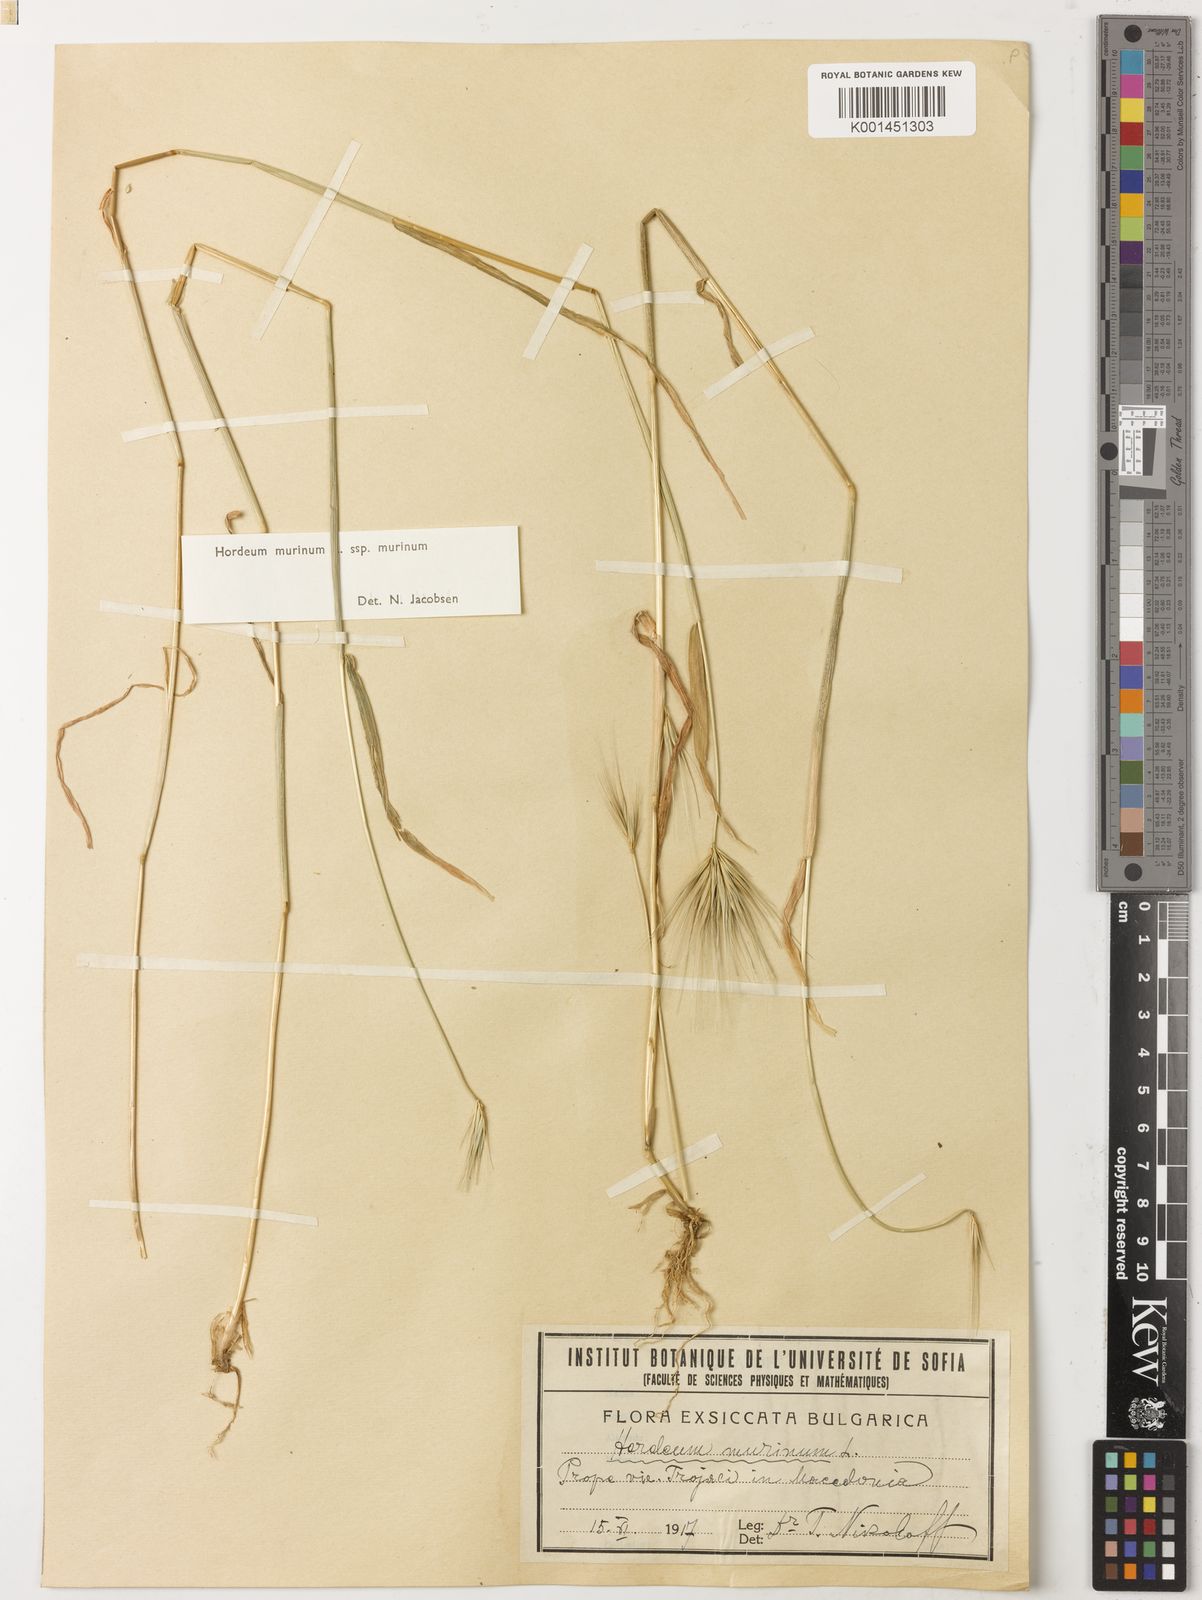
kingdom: Plantae
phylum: Tracheophyta
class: Liliopsida
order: Poales
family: Poaceae
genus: Hordeum
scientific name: Hordeum murinum
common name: Wall barley
